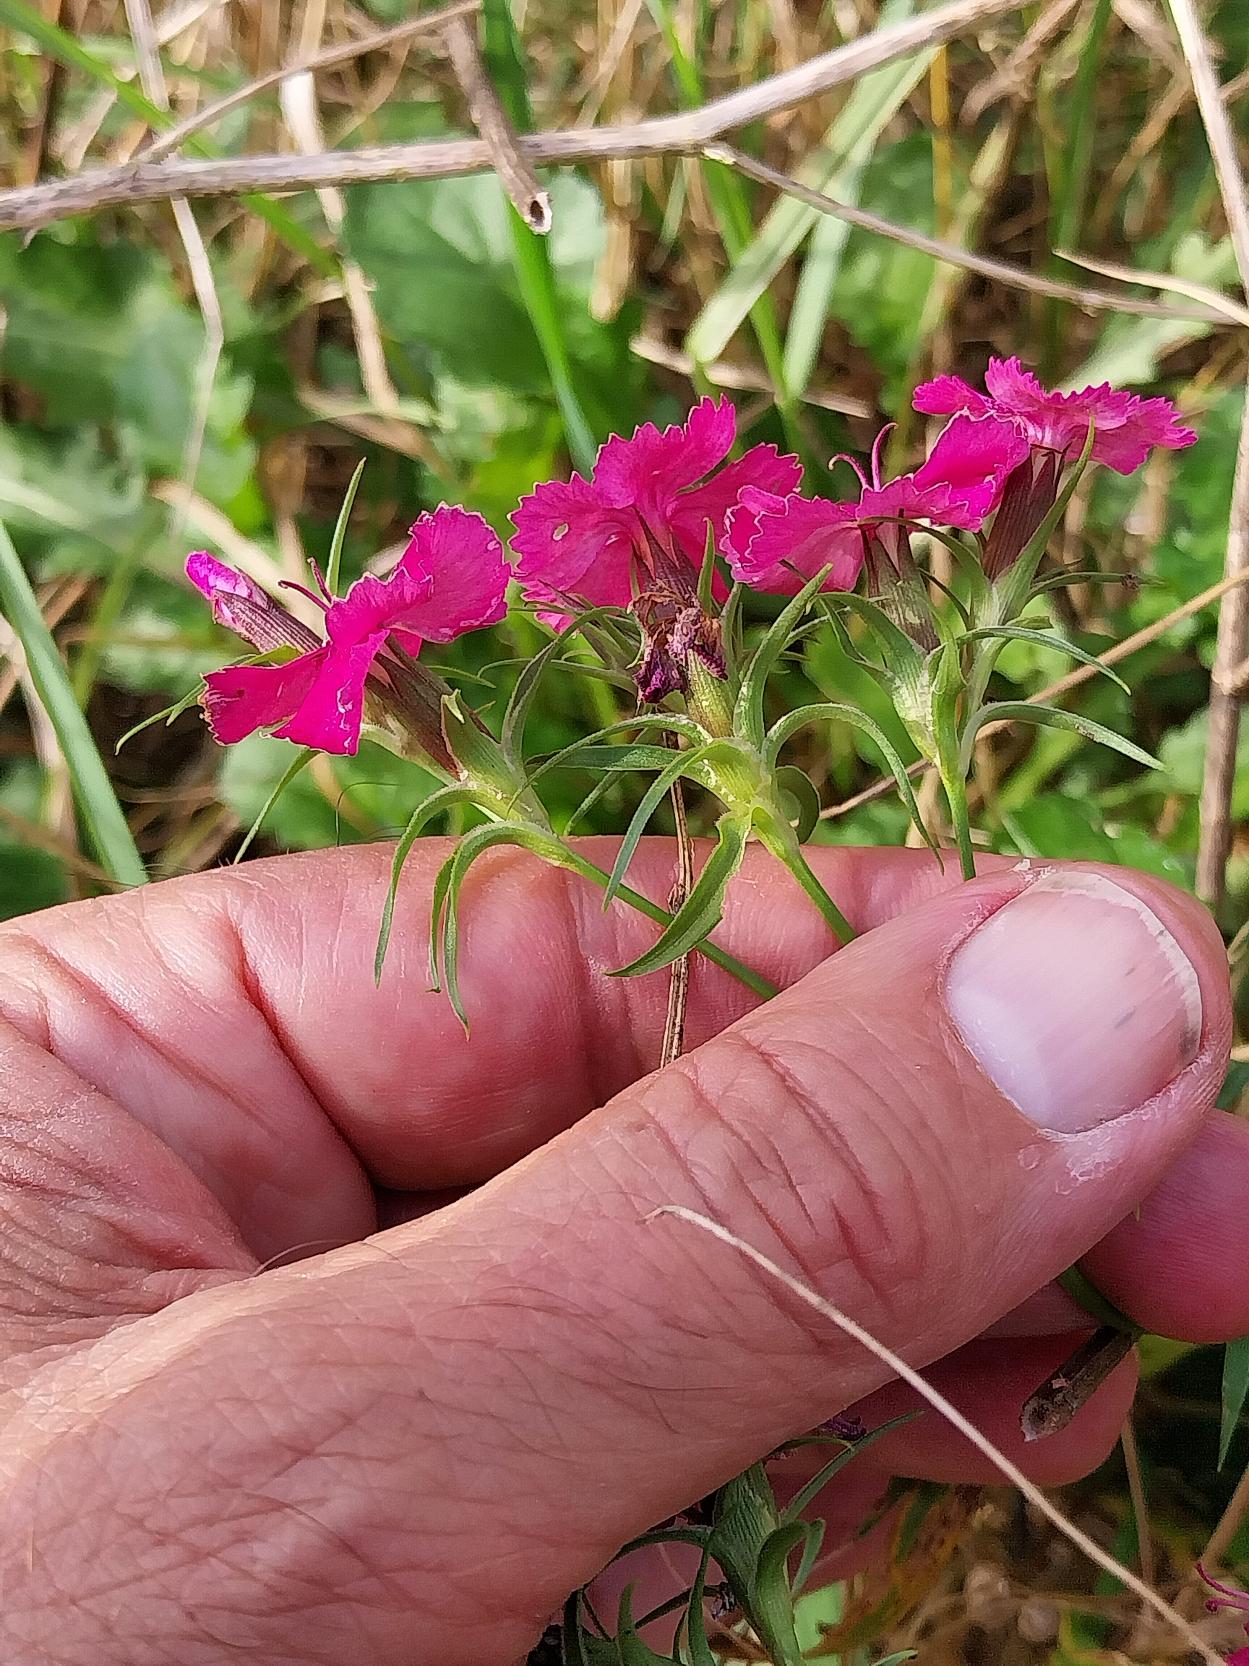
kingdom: Plantae
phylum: Tracheophyta
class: Magnoliopsida
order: Caryophyllales
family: Caryophyllaceae
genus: Dianthus
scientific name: Dianthus barbatus
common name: Studenter-nellike
